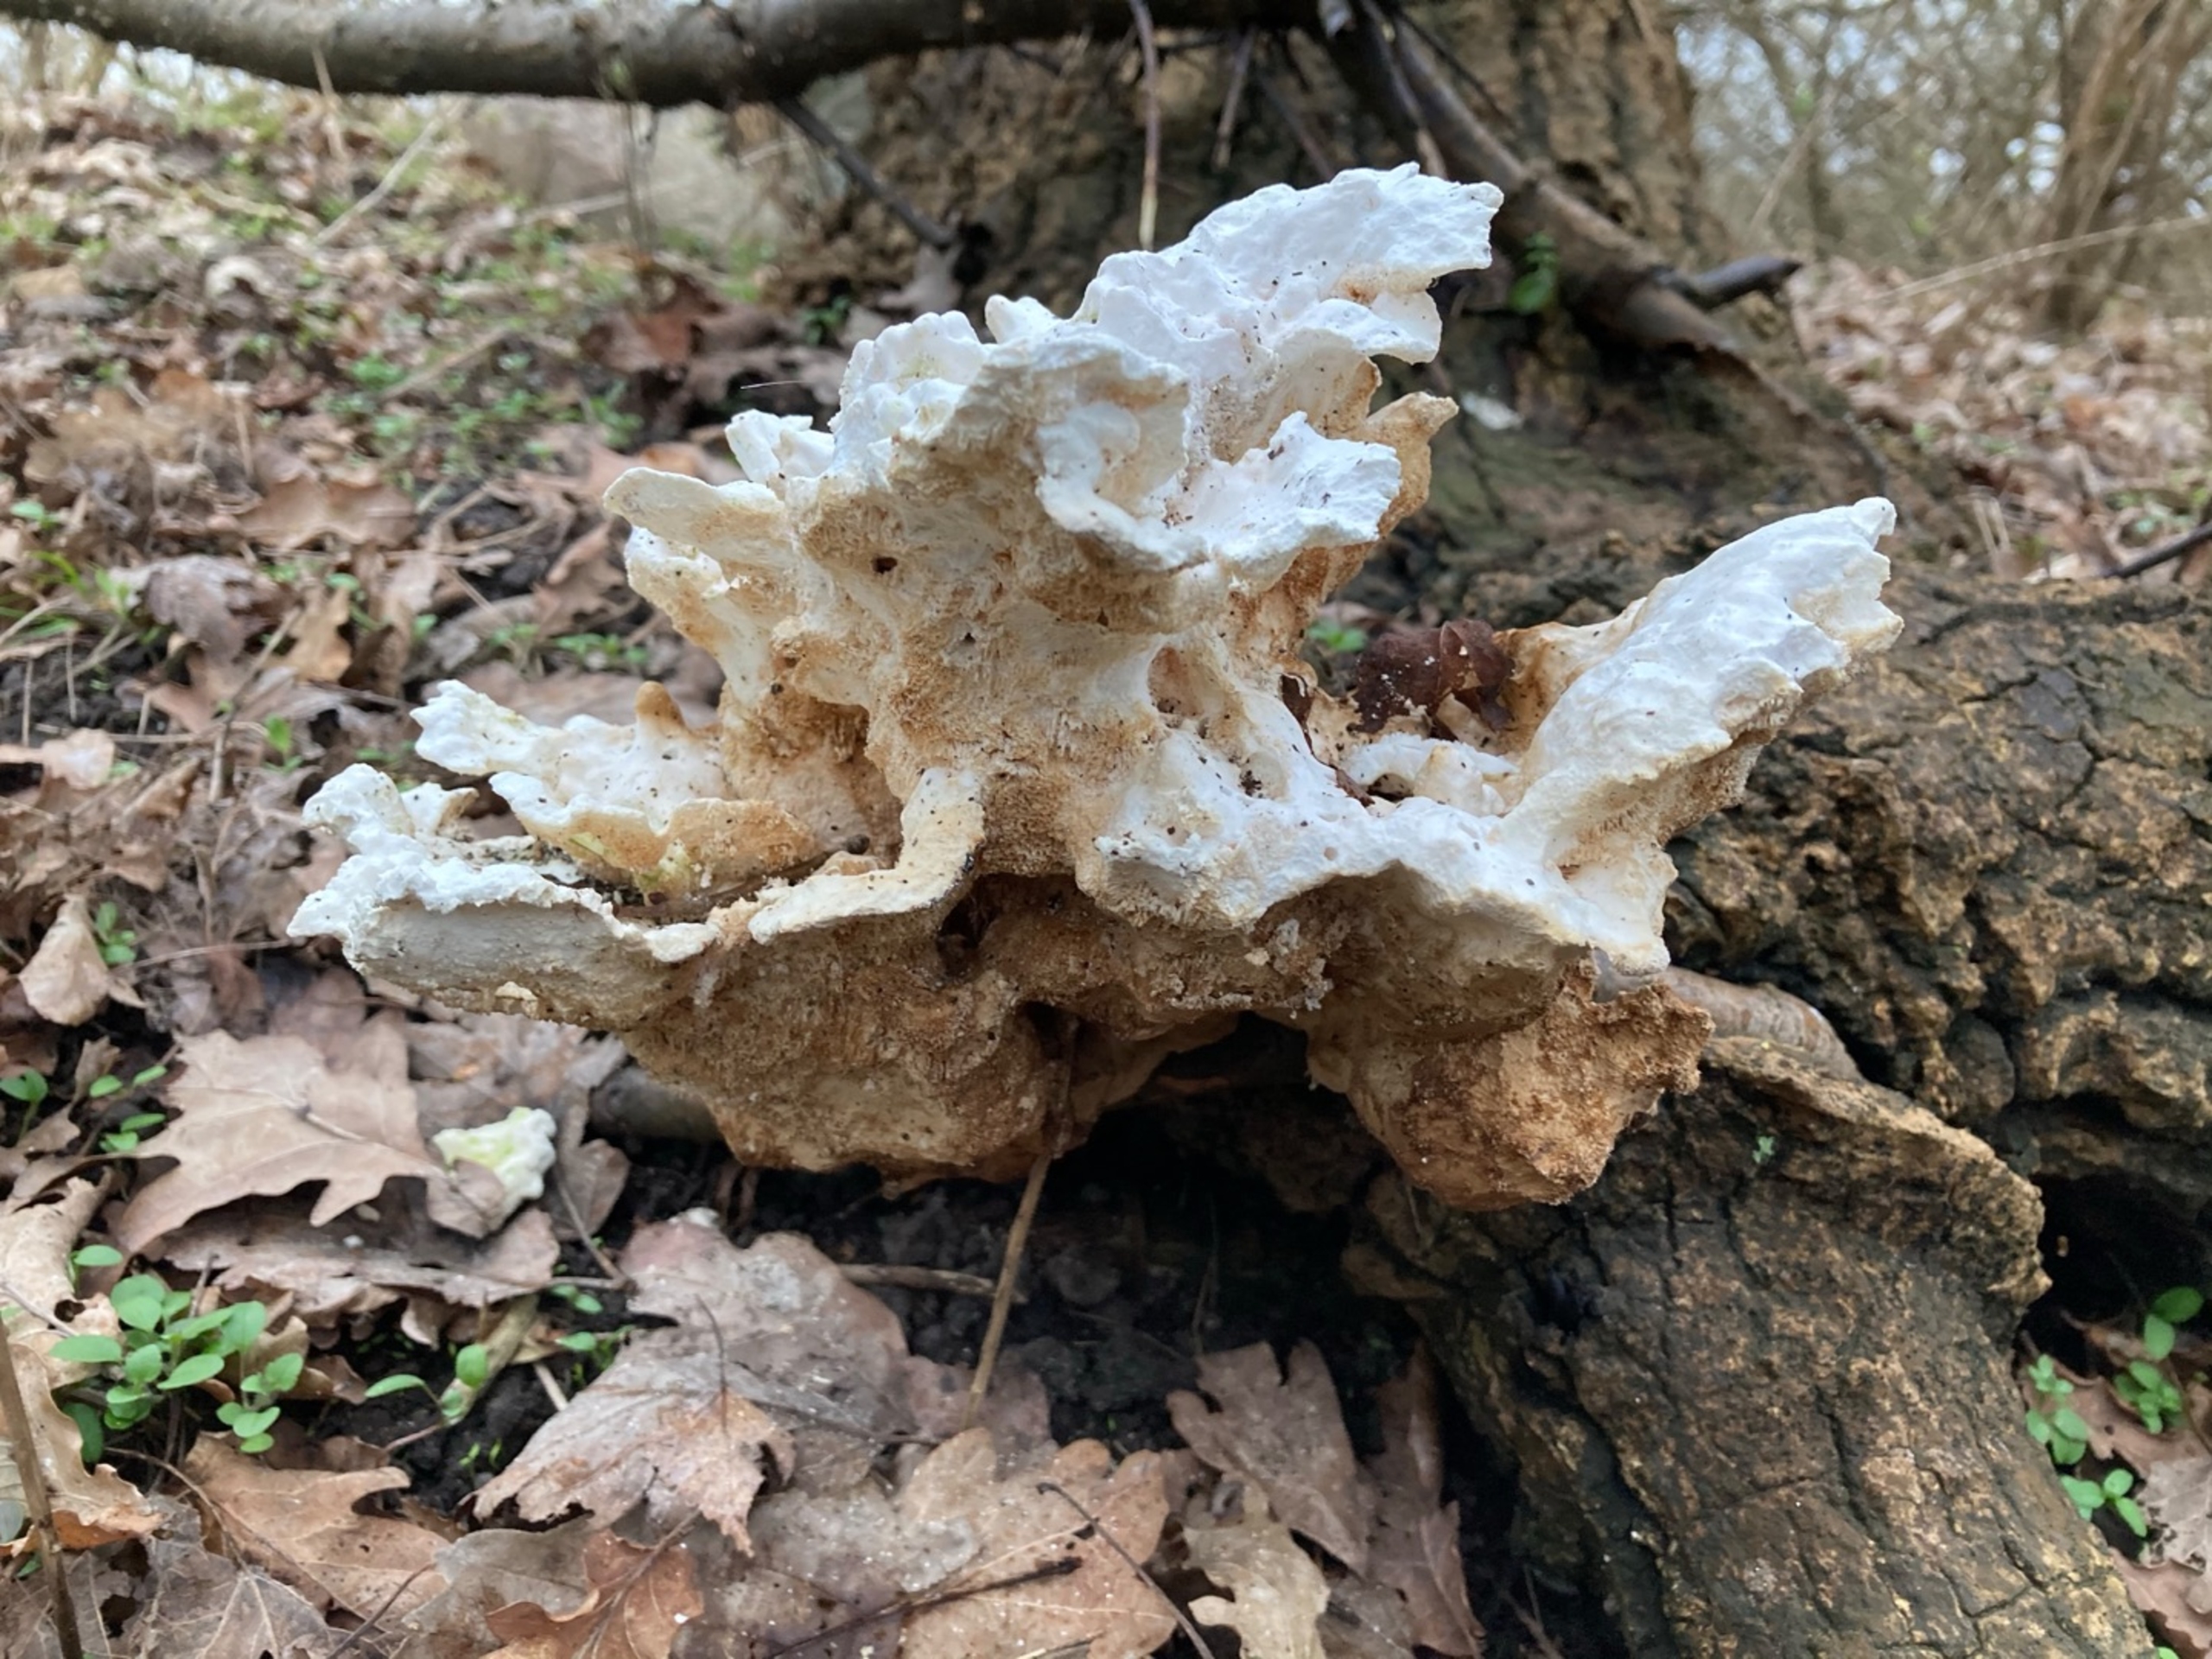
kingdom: Fungi
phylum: Basidiomycota
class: Agaricomycetes
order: Polyporales
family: Laetiporaceae
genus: Laetiporus
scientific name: Laetiporus sulphureus
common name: Svovlporesvamp
